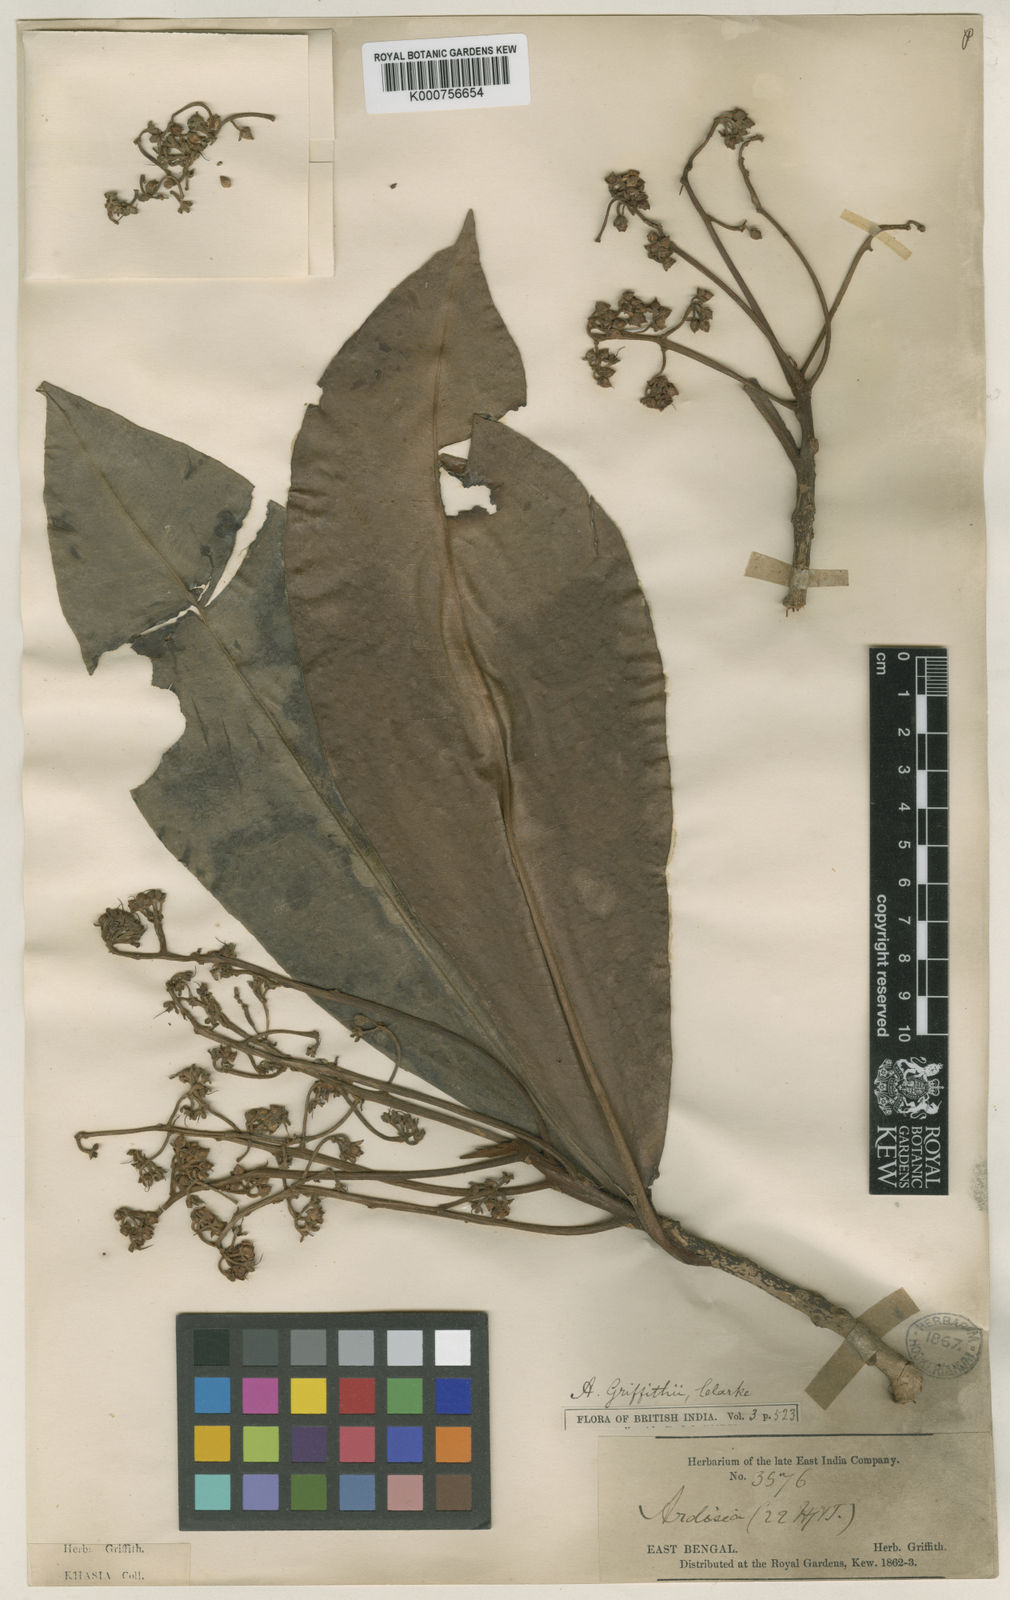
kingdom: Plantae
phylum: Tracheophyta
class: Magnoliopsida
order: Ericales
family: Primulaceae
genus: Ardisia
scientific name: Ardisia griffithii
